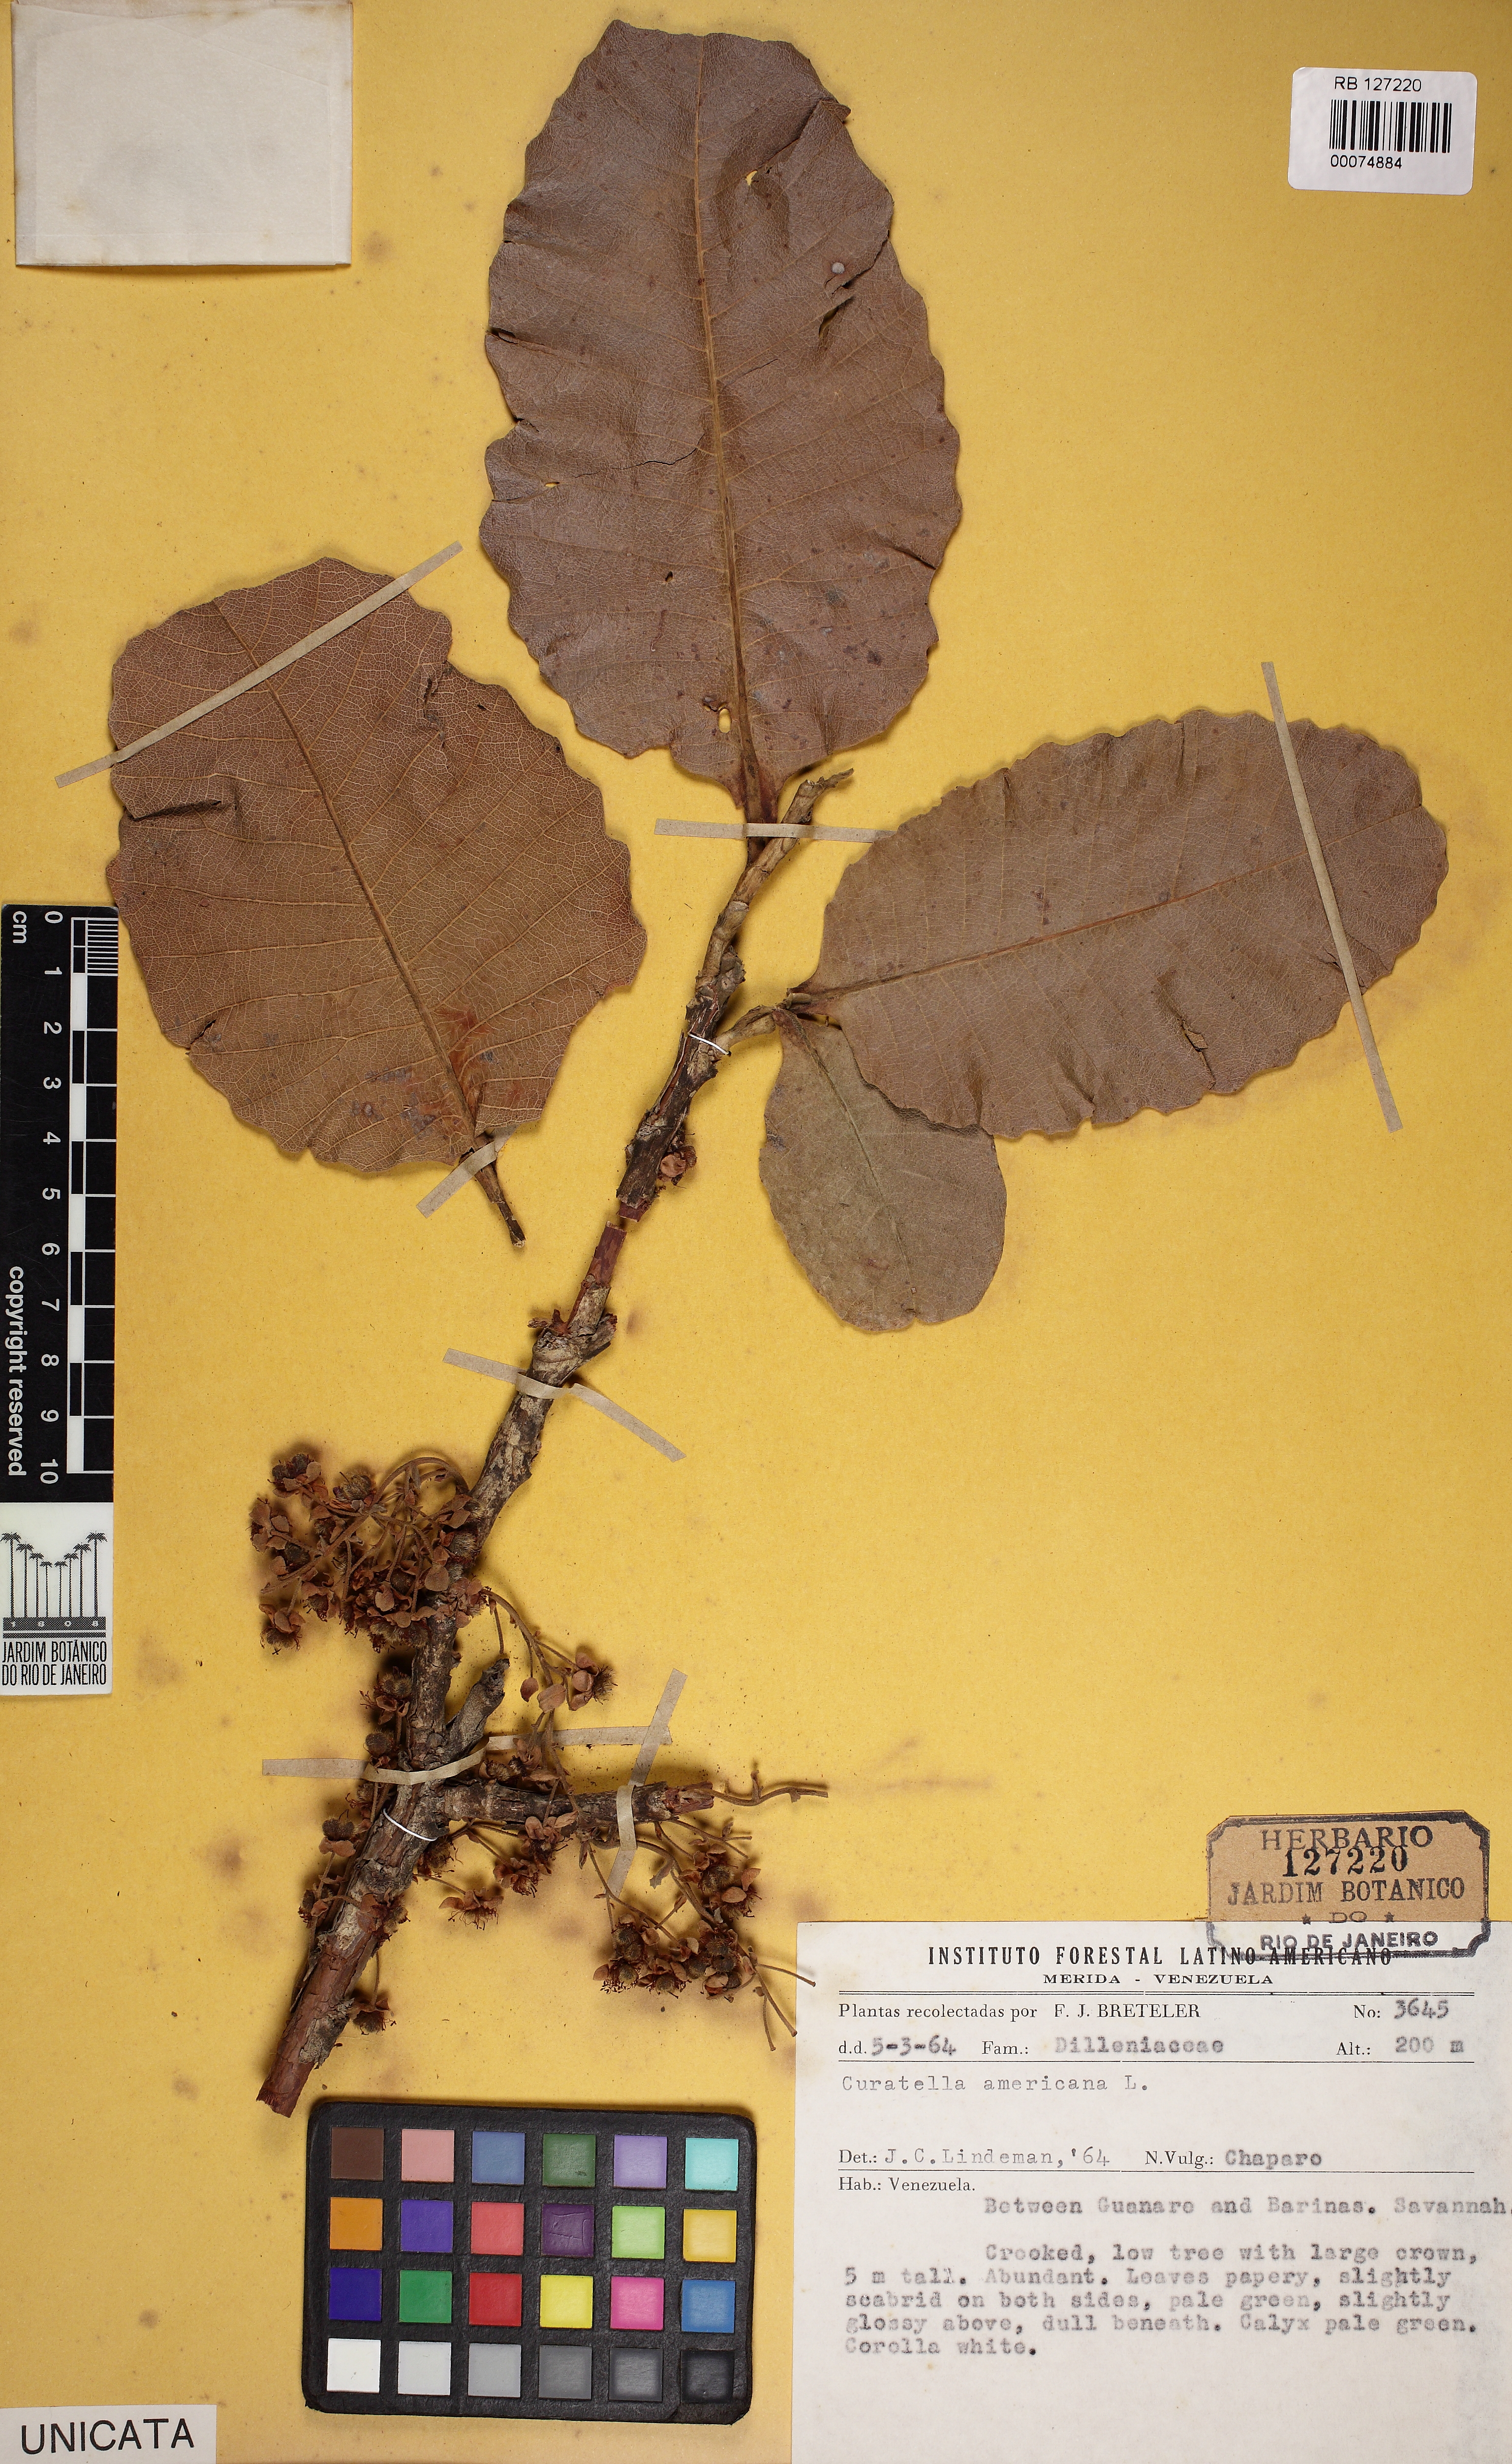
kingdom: Plantae
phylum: Tracheophyta
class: Magnoliopsida
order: Dilleniales
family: Dilleniaceae
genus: Curatella
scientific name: Curatella americana
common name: Sandpaper tree
